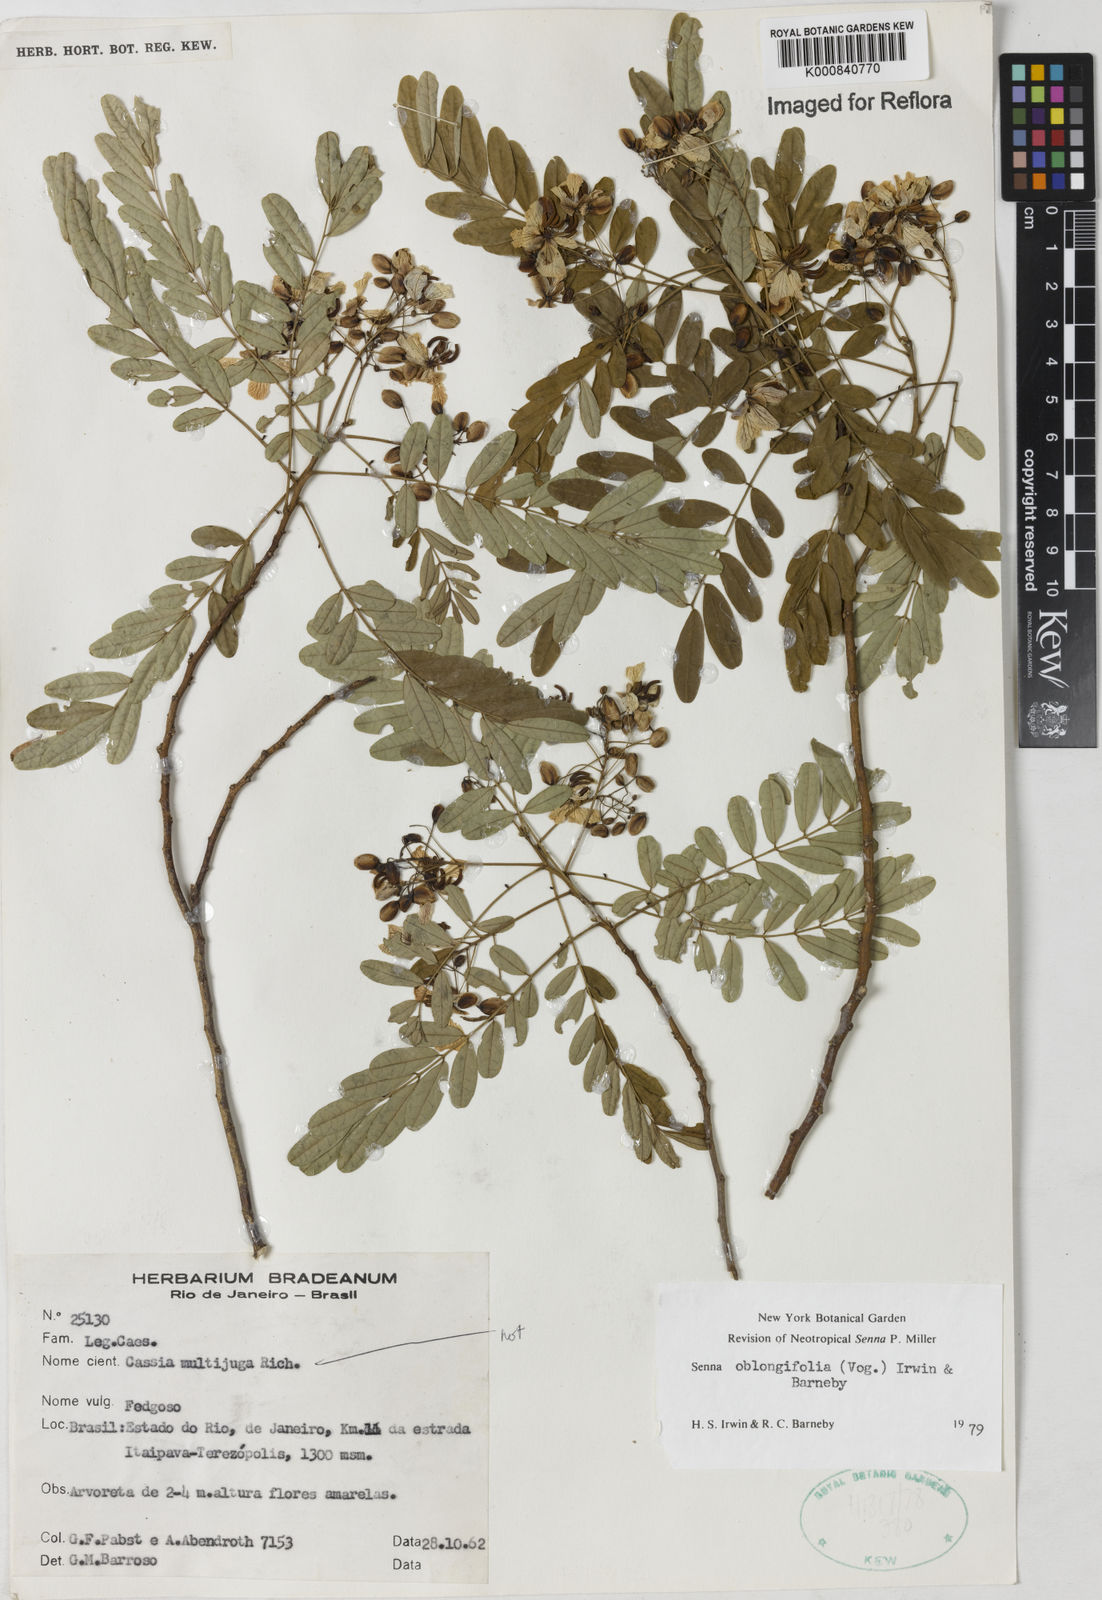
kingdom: Plantae
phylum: Tracheophyta
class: Magnoliopsida
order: Fabales
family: Fabaceae
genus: Senna
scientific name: Senna oblongifolia
